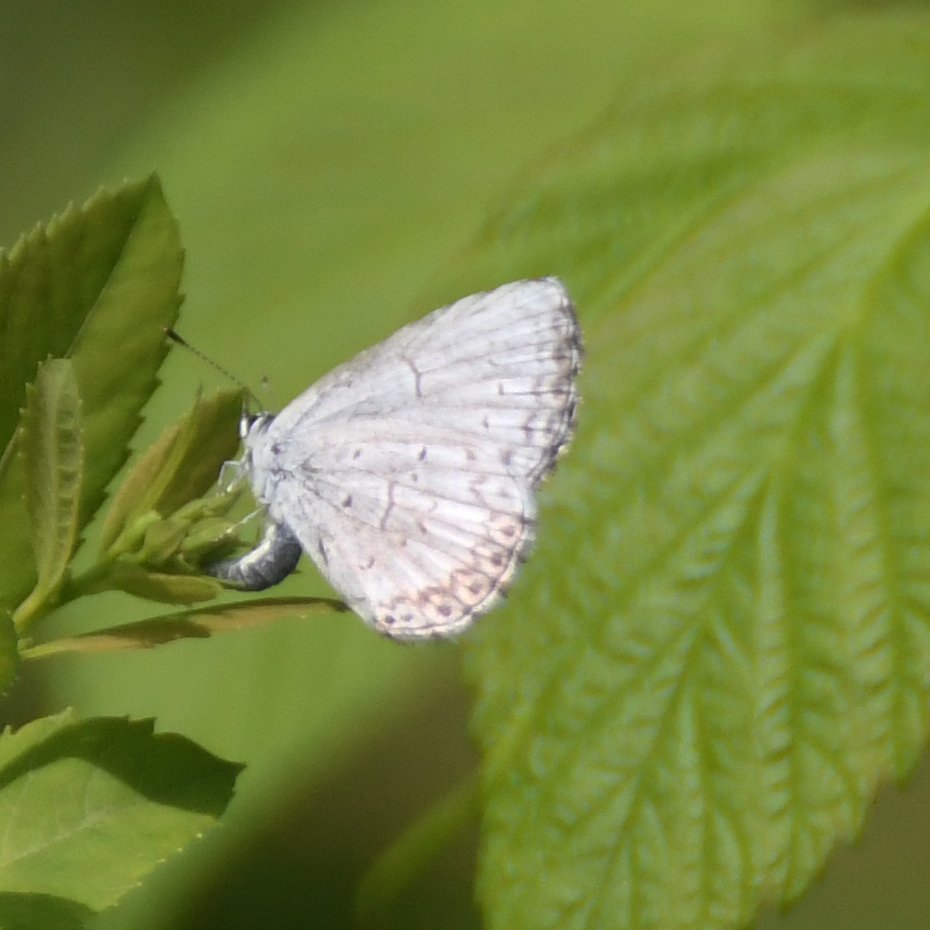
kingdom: Animalia
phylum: Arthropoda
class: Insecta
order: Lepidoptera
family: Lycaenidae
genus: Celastrina
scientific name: Celastrina lucia
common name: Northern Spring Azure
